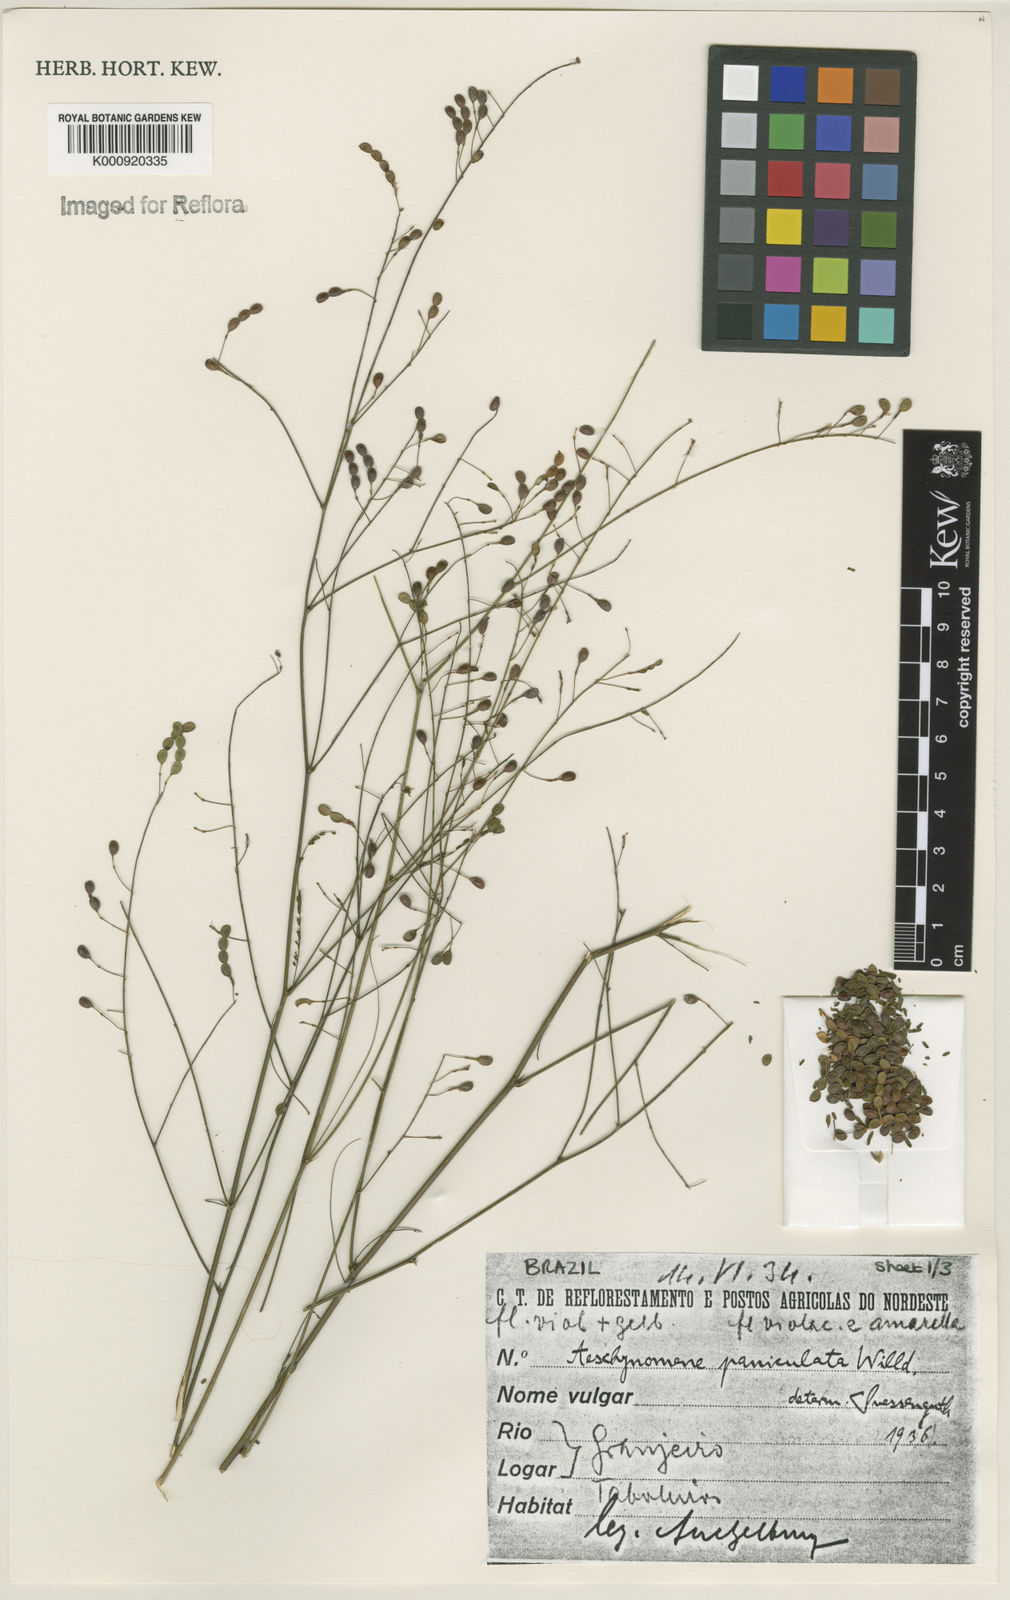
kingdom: Plantae
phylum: Tracheophyta
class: Magnoliopsida
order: Fabales
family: Fabaceae
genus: Ctenodon
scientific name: Ctenodon paniculatus
